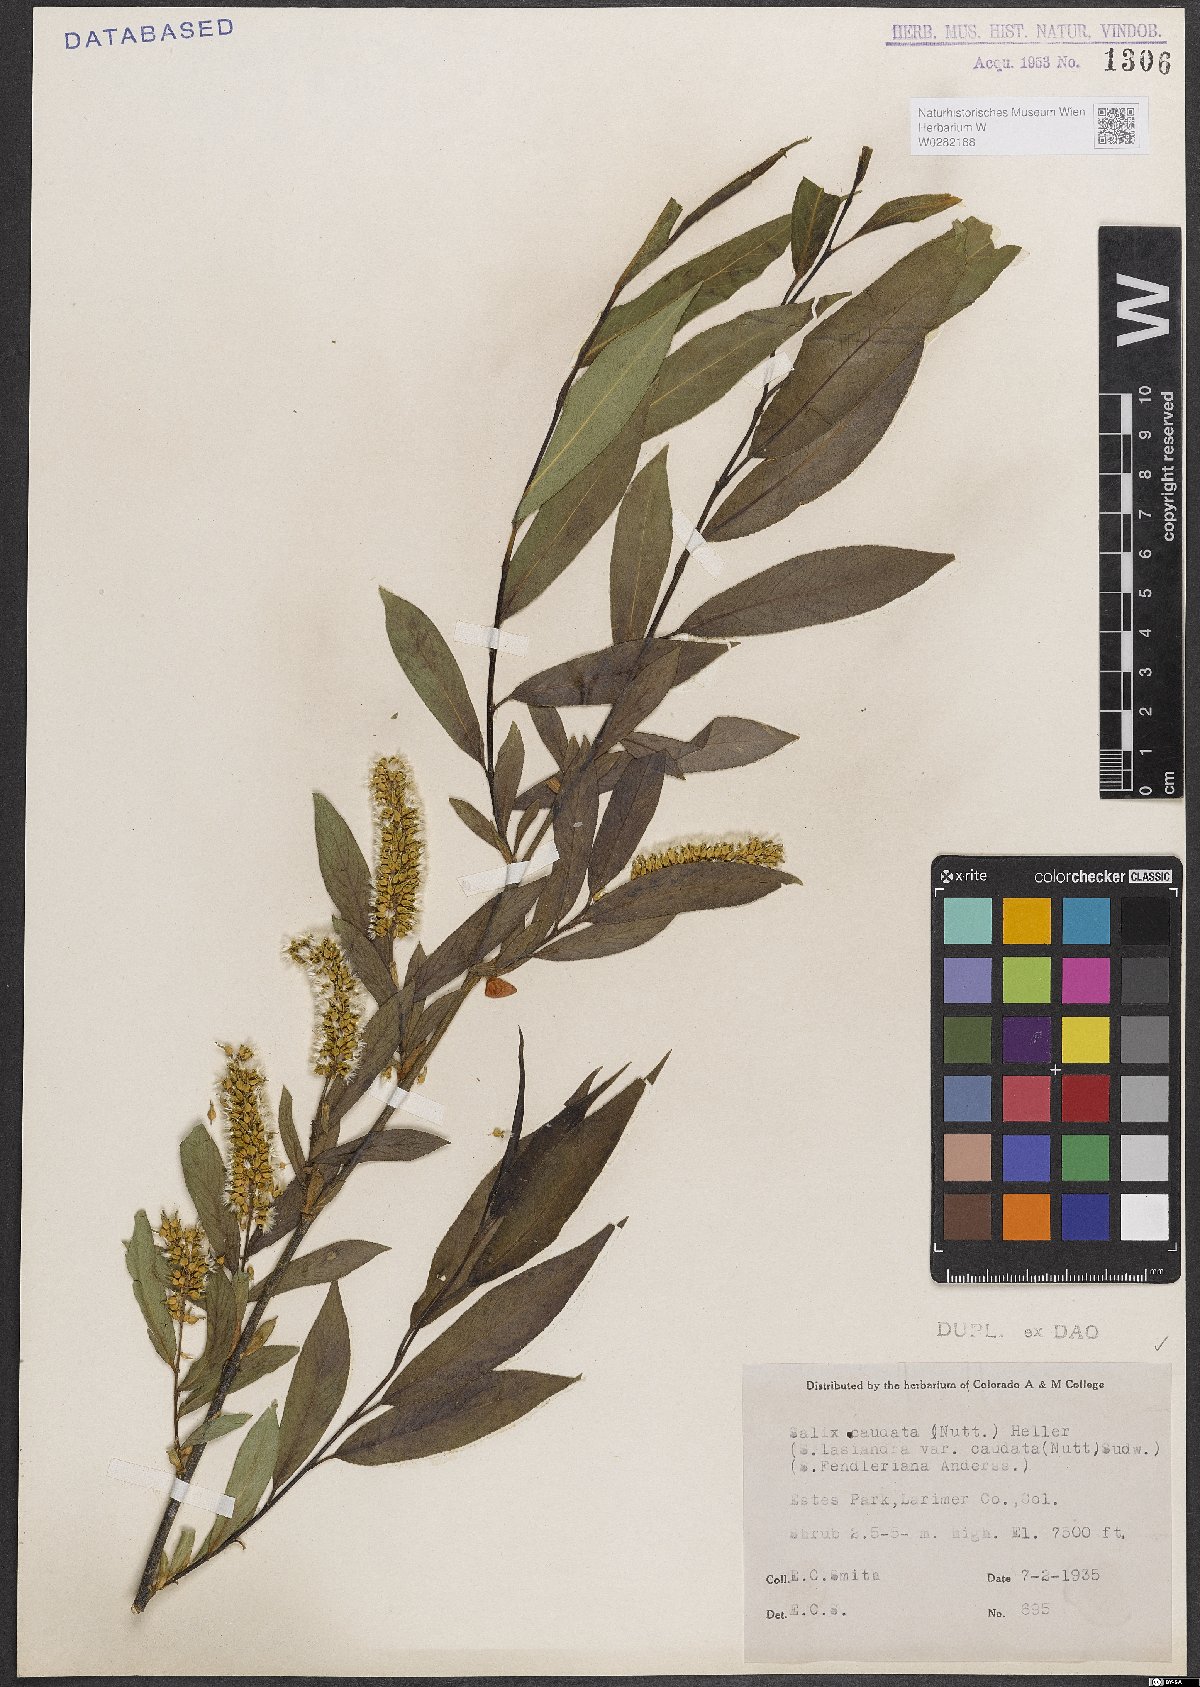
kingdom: Plantae
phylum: Tracheophyta
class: Magnoliopsida
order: Malpighiales
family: Salicaceae
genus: Salix
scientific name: Salix lucida
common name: Shining willow
